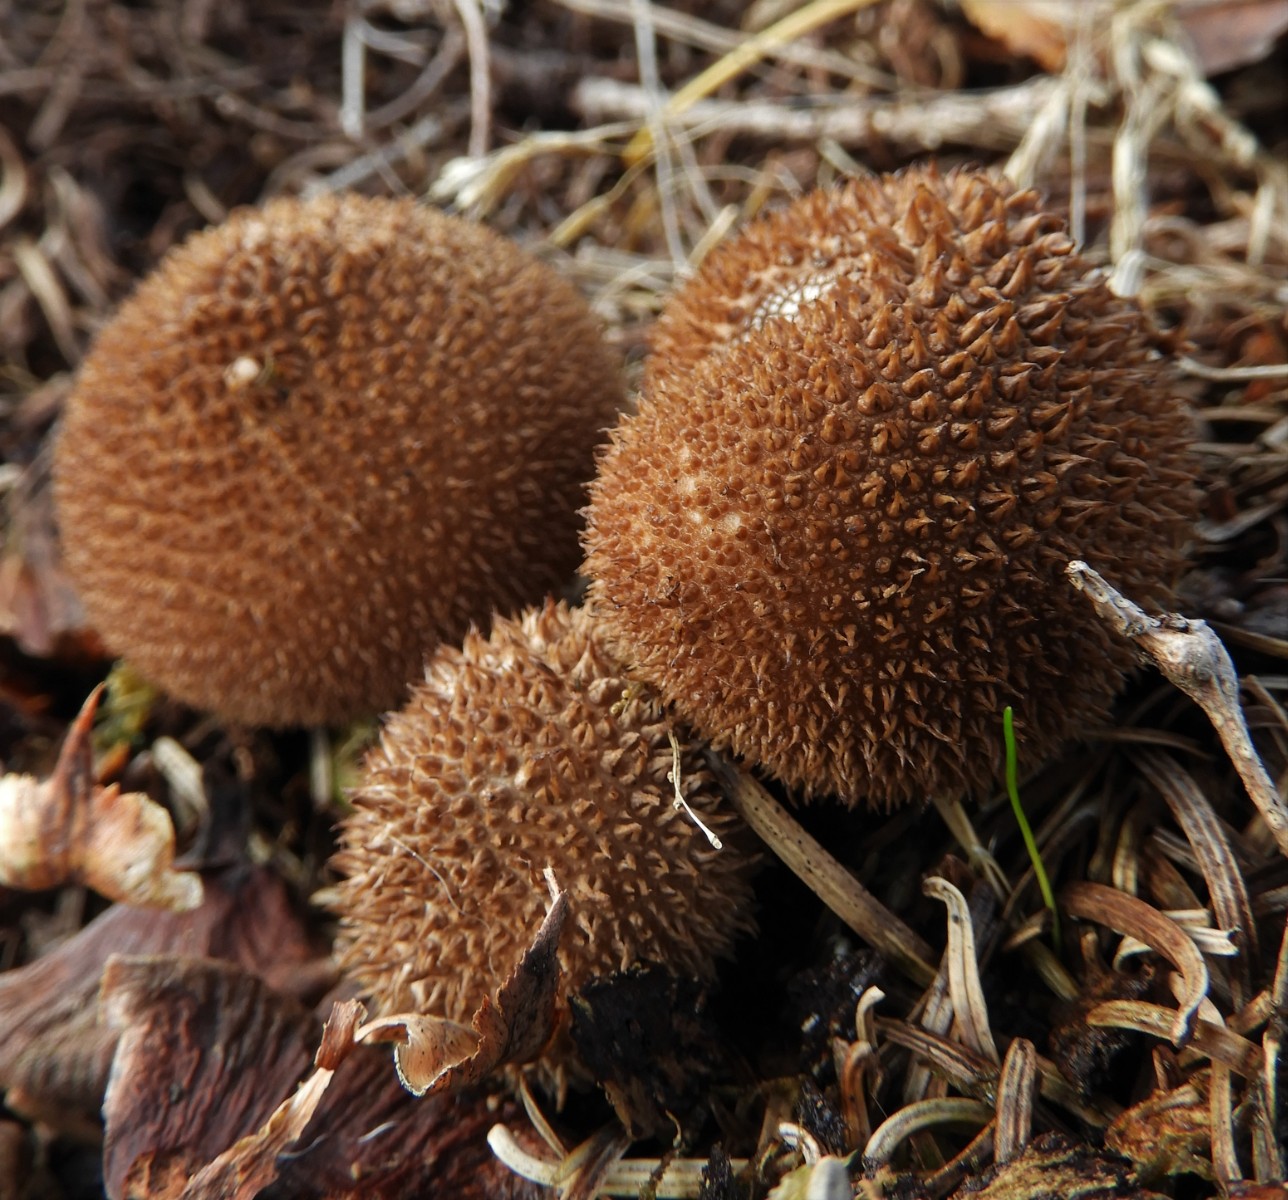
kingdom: Fungi
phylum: Basidiomycota
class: Agaricomycetes
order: Agaricales
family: Lycoperdaceae
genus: Lycoperdon
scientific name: Lycoperdon nigrescens
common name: sortagtig støvbold
